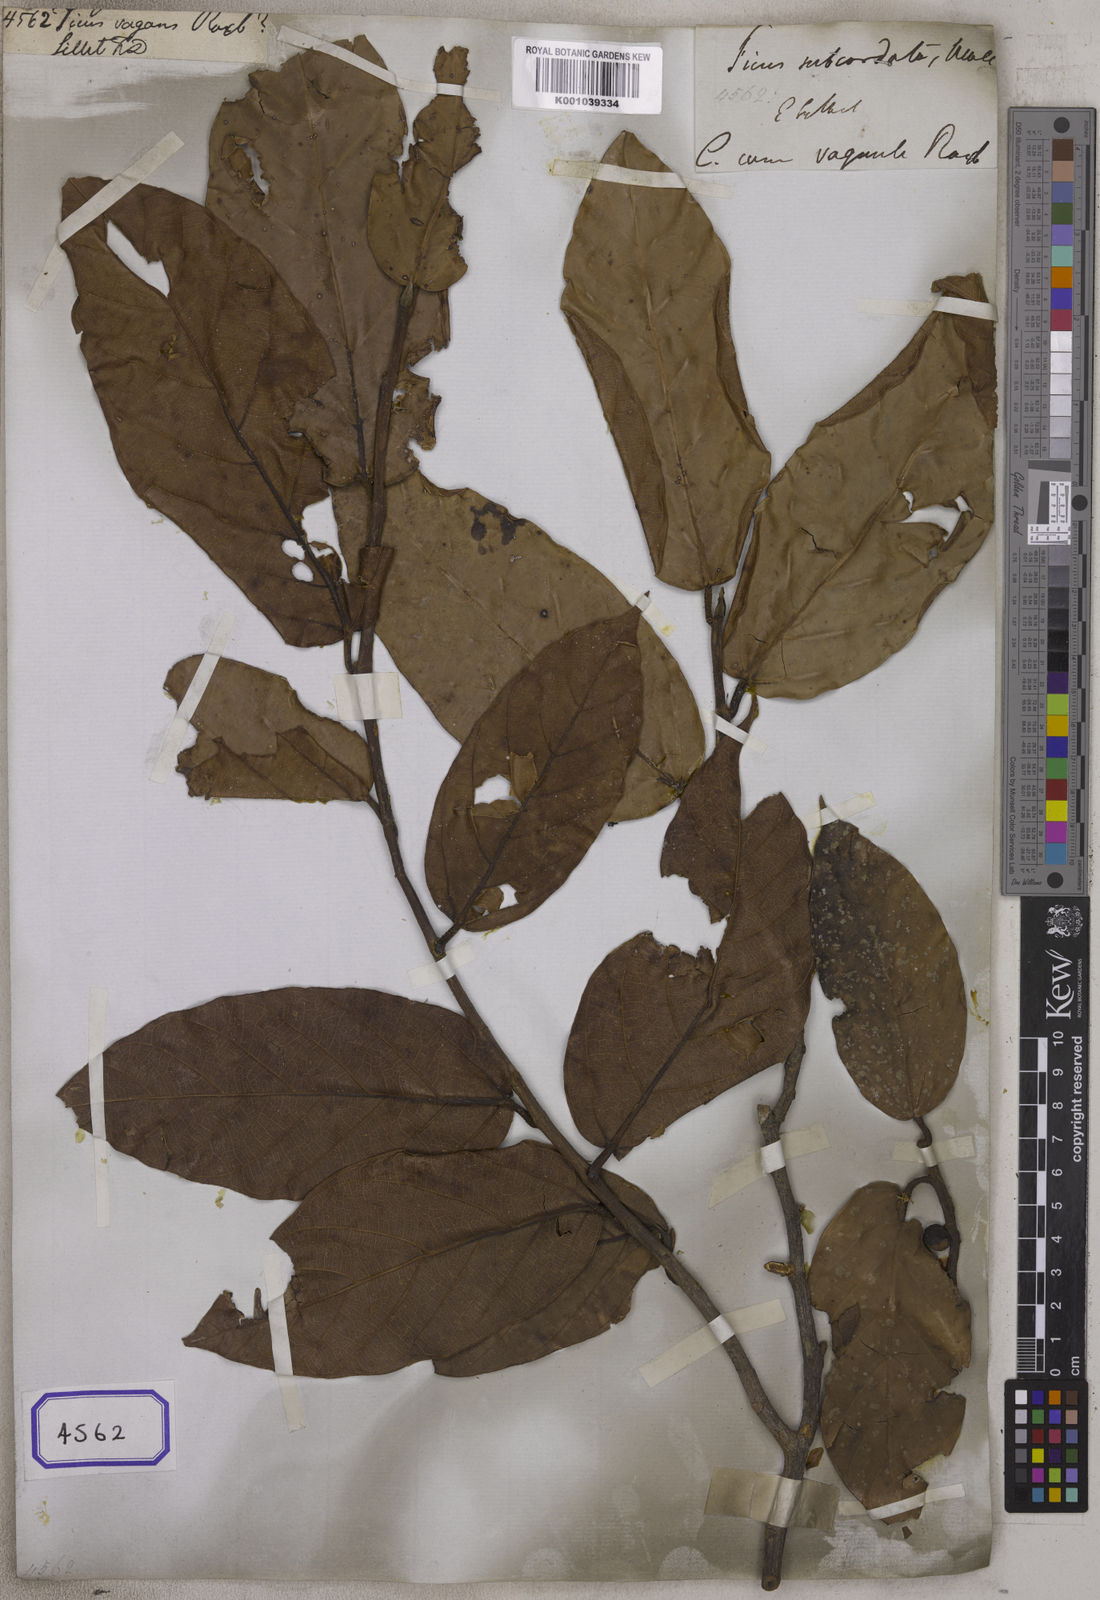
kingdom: Plantae
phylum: Tracheophyta
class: Magnoliopsida
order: Rosales
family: Moraceae
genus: Ficus
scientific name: Ficus
